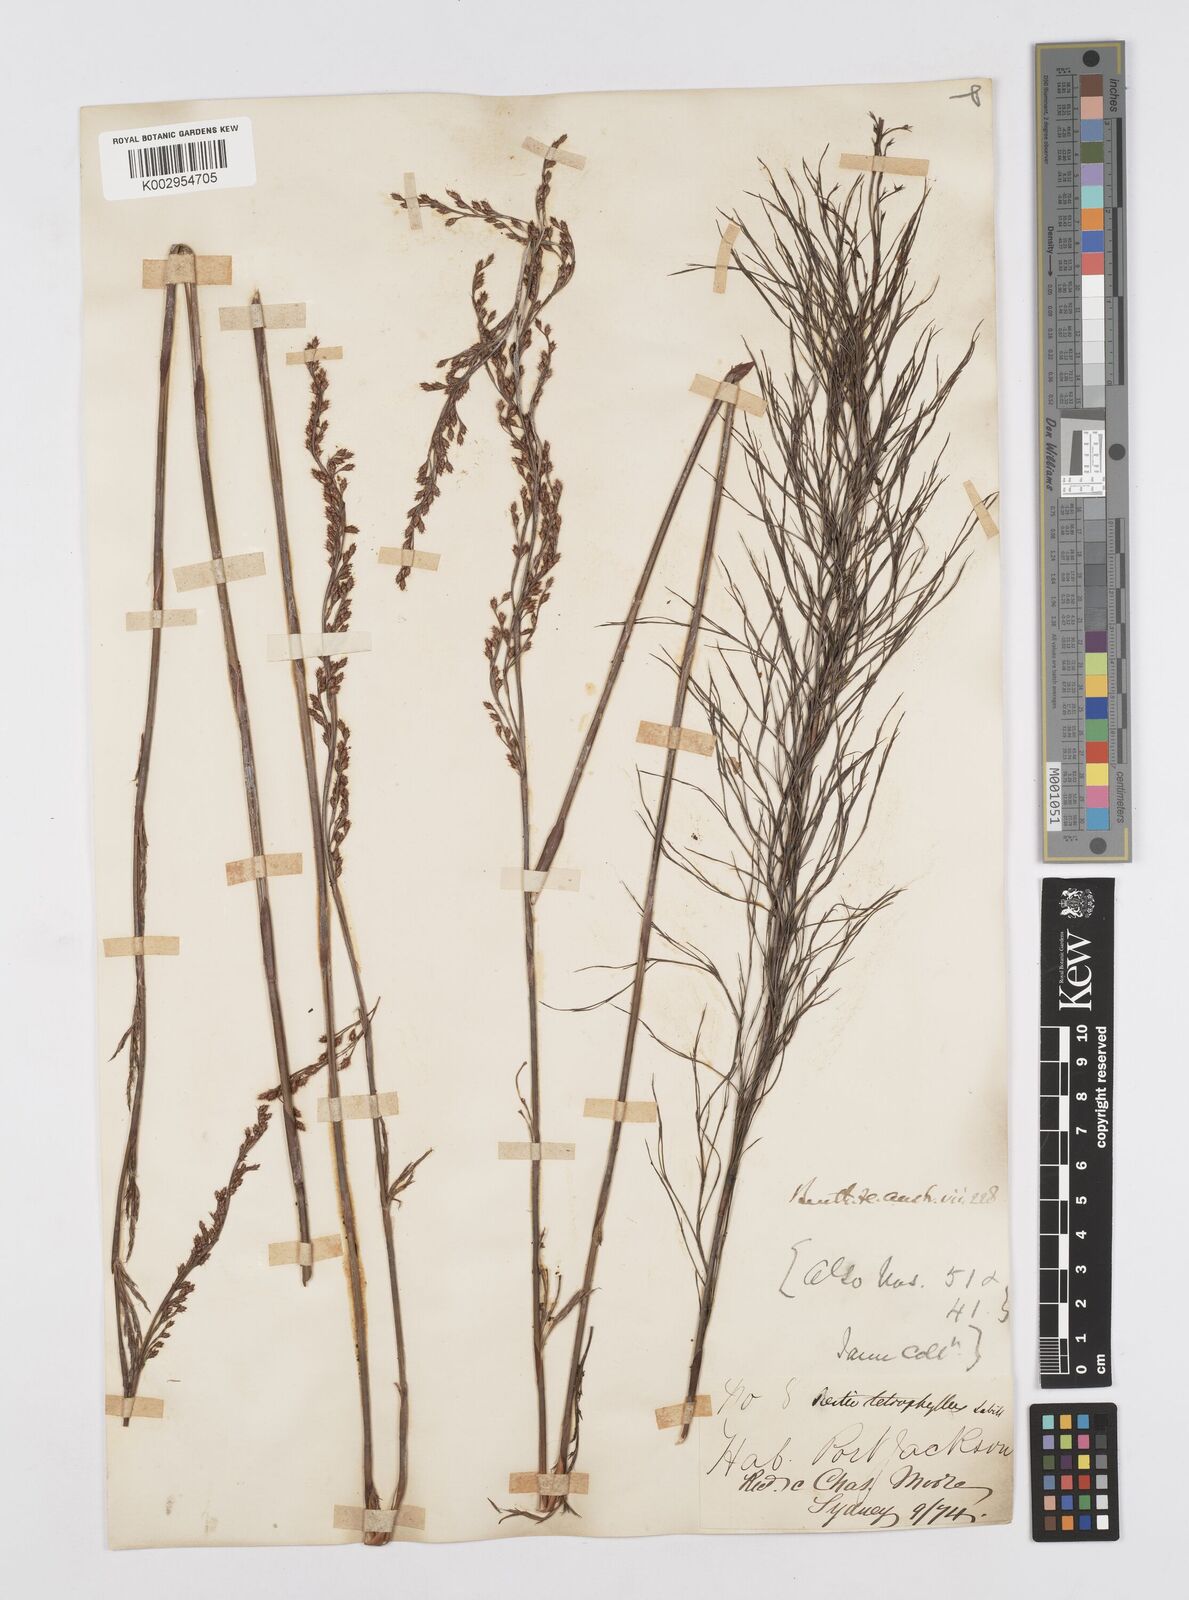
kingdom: Plantae
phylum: Tracheophyta
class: Liliopsida
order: Poales
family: Restionaceae
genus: Baloskion
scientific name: Baloskion tetraphyllum
